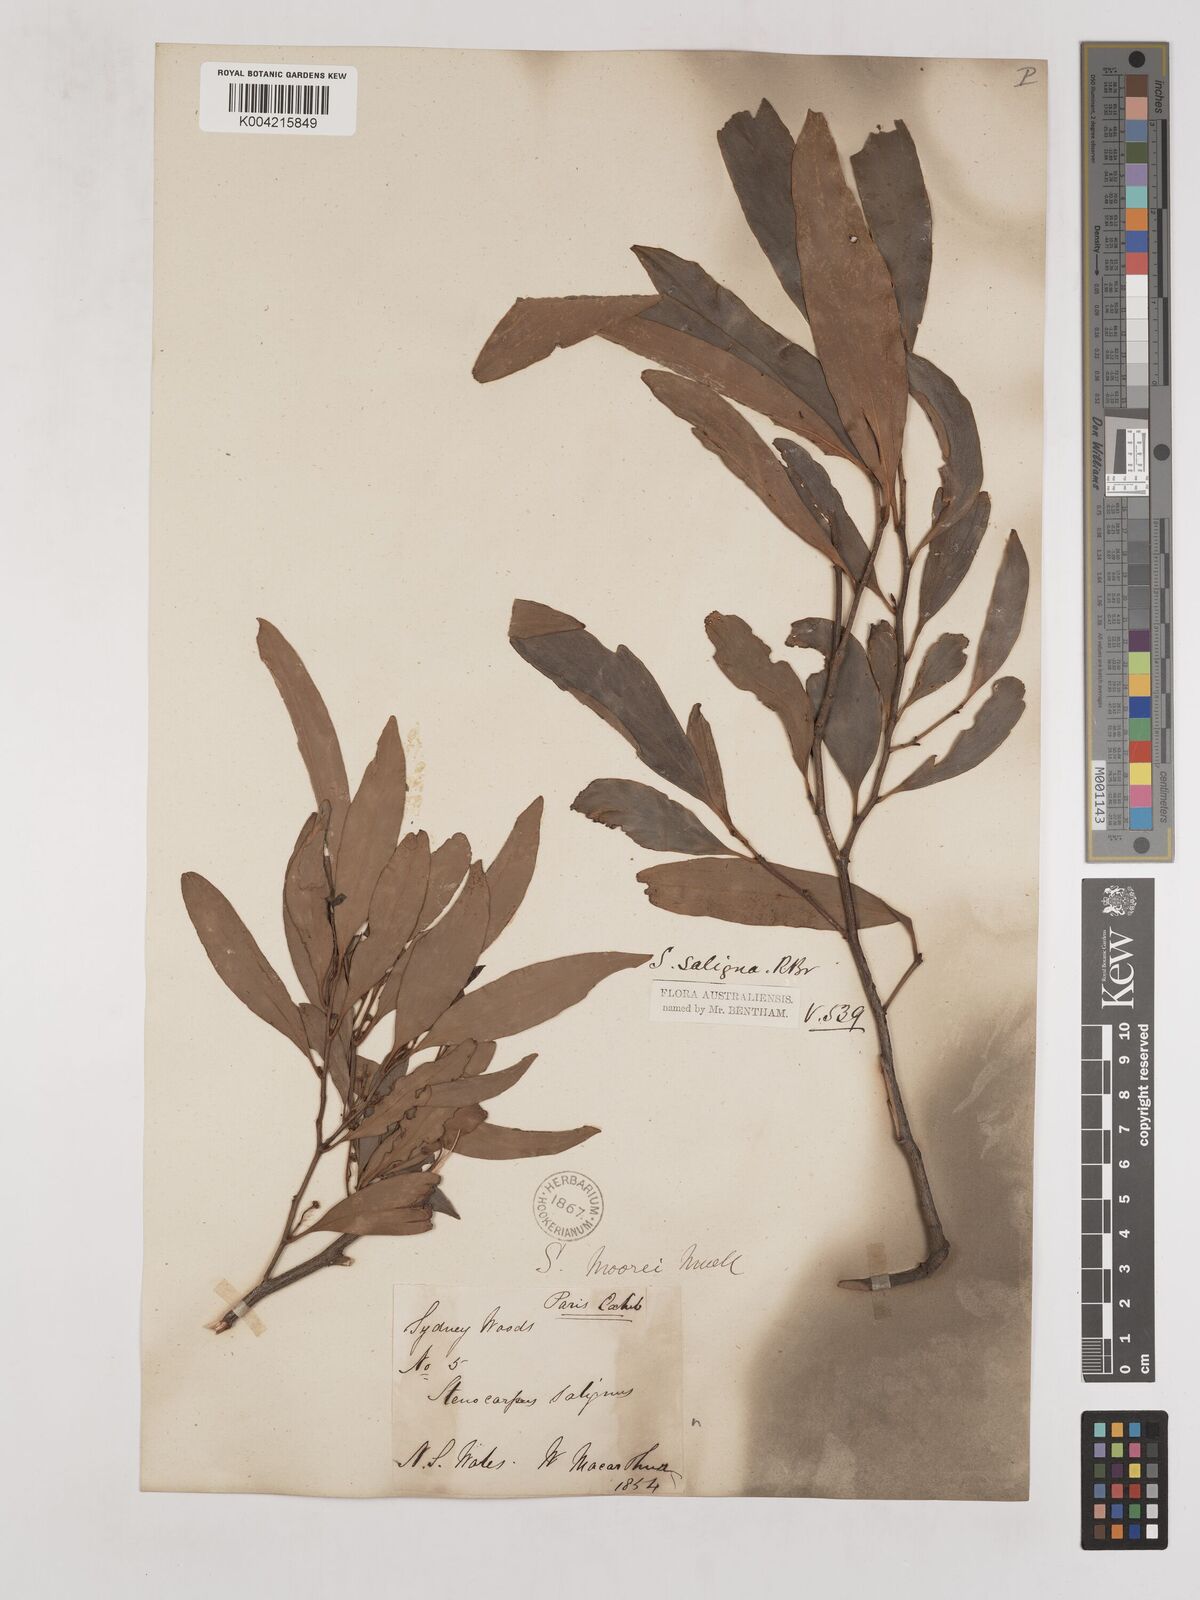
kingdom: Plantae
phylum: Tracheophyta
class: Magnoliopsida
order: Proteales
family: Proteaceae
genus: Stenocarpus
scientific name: Stenocarpus salignus
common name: Red silky-oak
